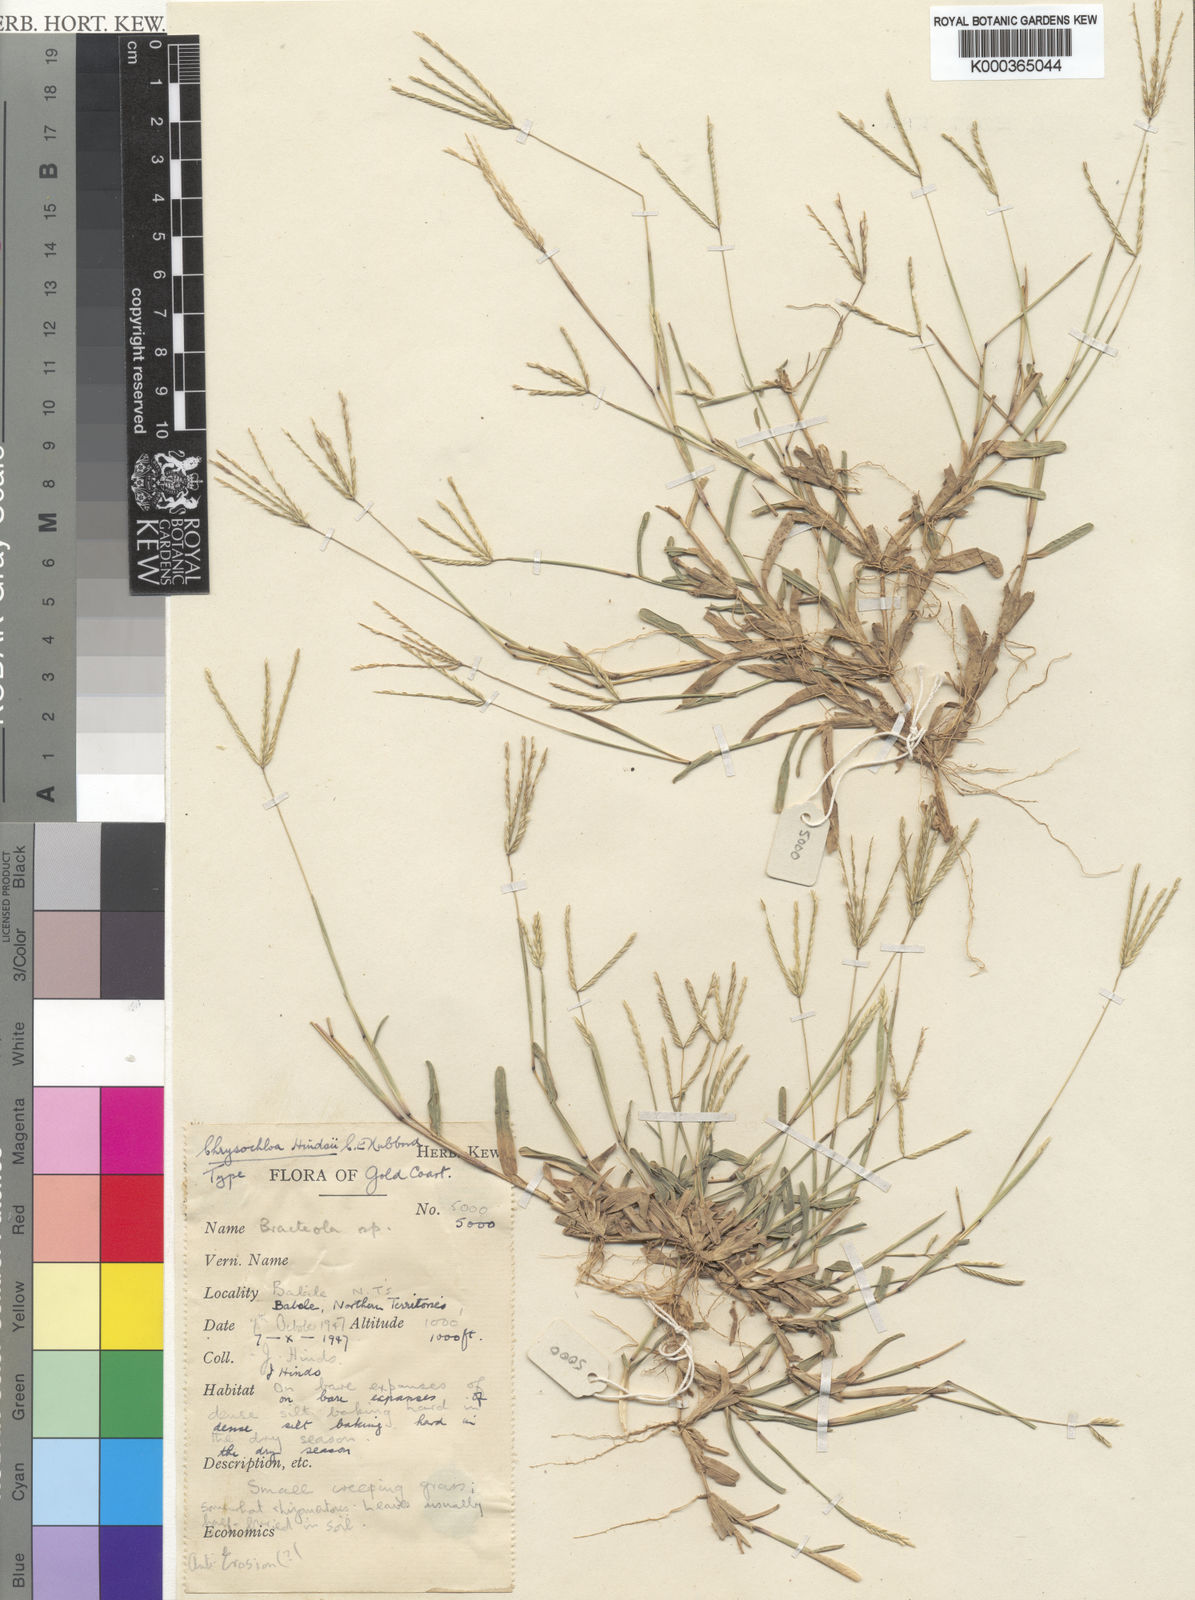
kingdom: Plantae
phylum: Tracheophyta
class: Liliopsida
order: Poales
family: Poaceae
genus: Chrysochloa
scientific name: Chrysochloa hindsii
